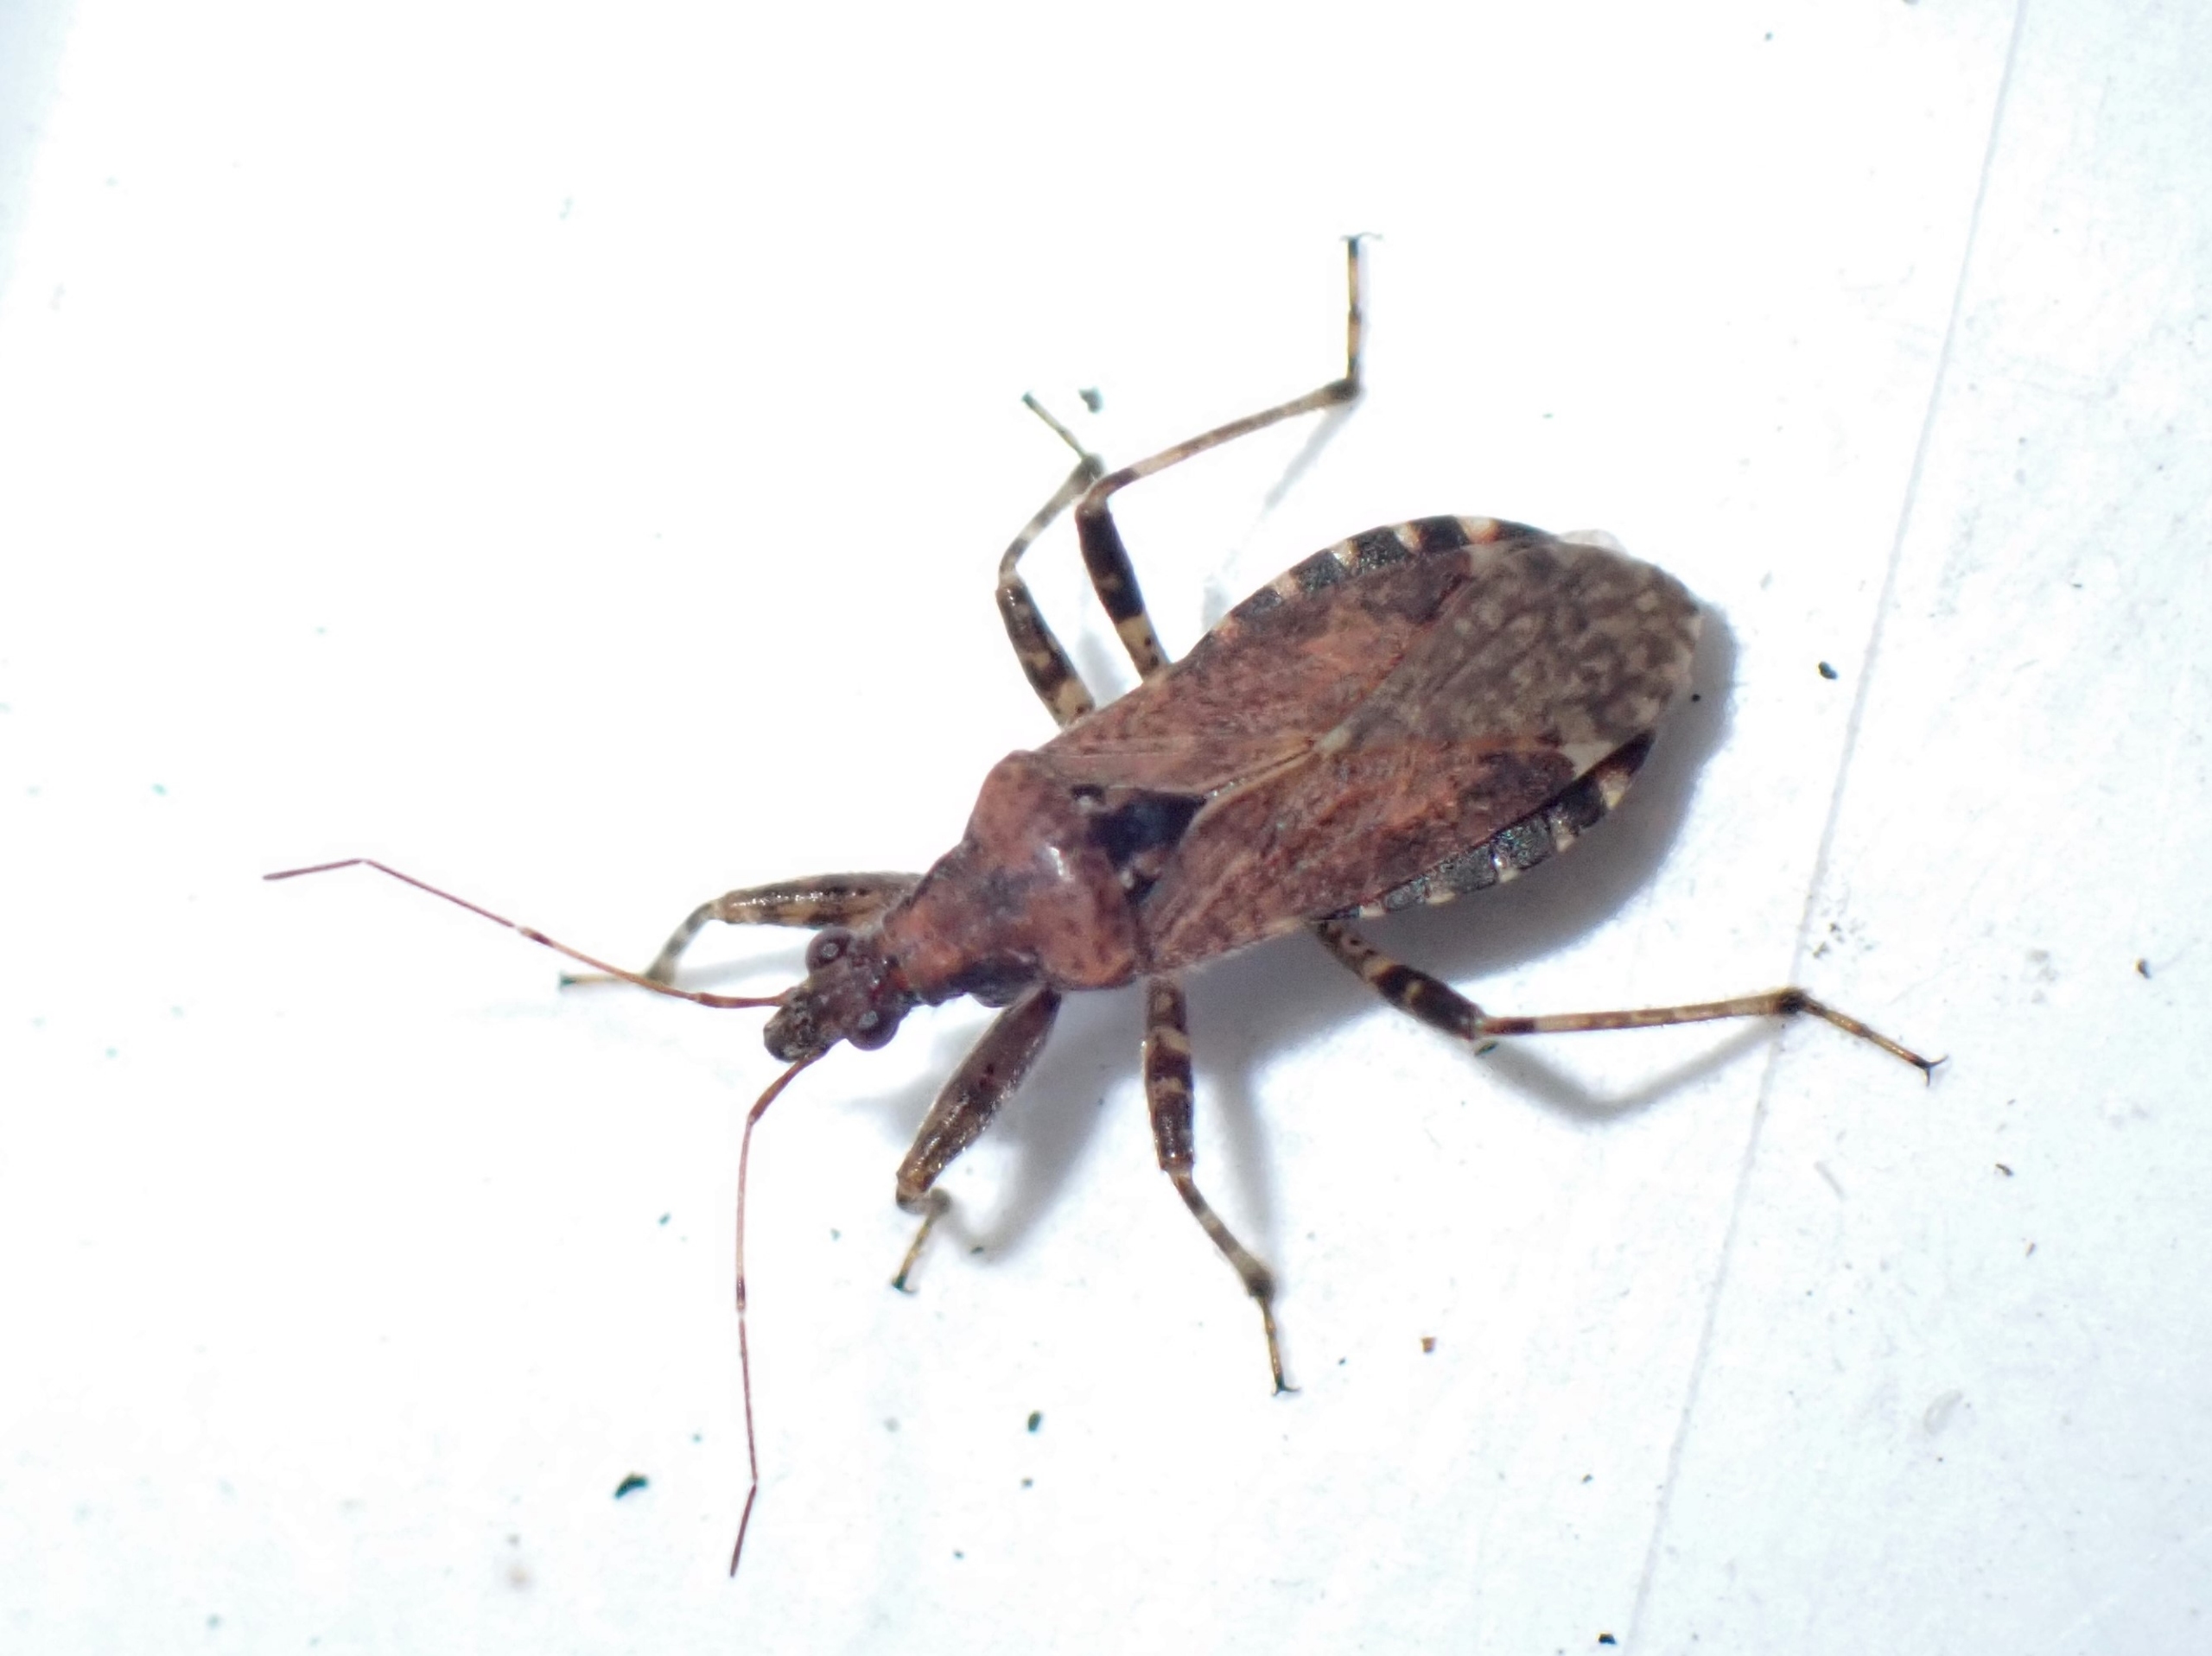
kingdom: Animalia
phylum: Arthropoda
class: Insecta
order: Hemiptera
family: Nabidae
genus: Himacerus
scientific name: Himacerus mirmicoides
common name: Myrenymfetæge
